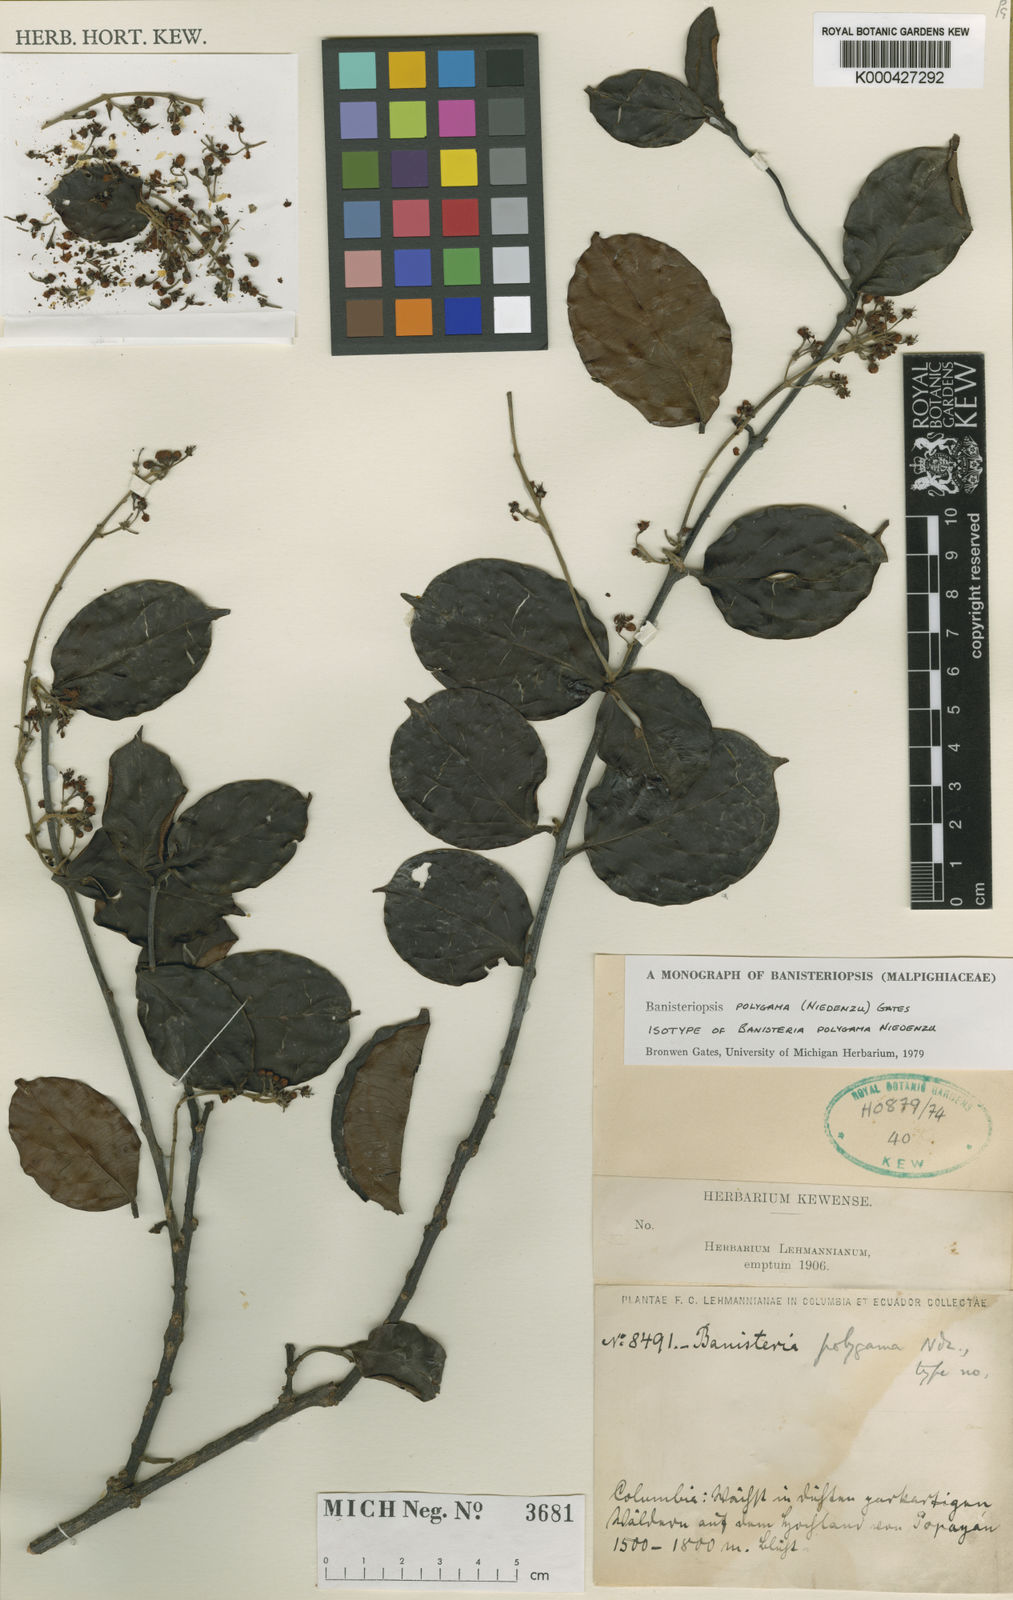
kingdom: Plantae
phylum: Tracheophyta
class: Magnoliopsida
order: Malpighiales
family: Malpighiaceae
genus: Banisteriopsis
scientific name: Banisteriopsis polygama
